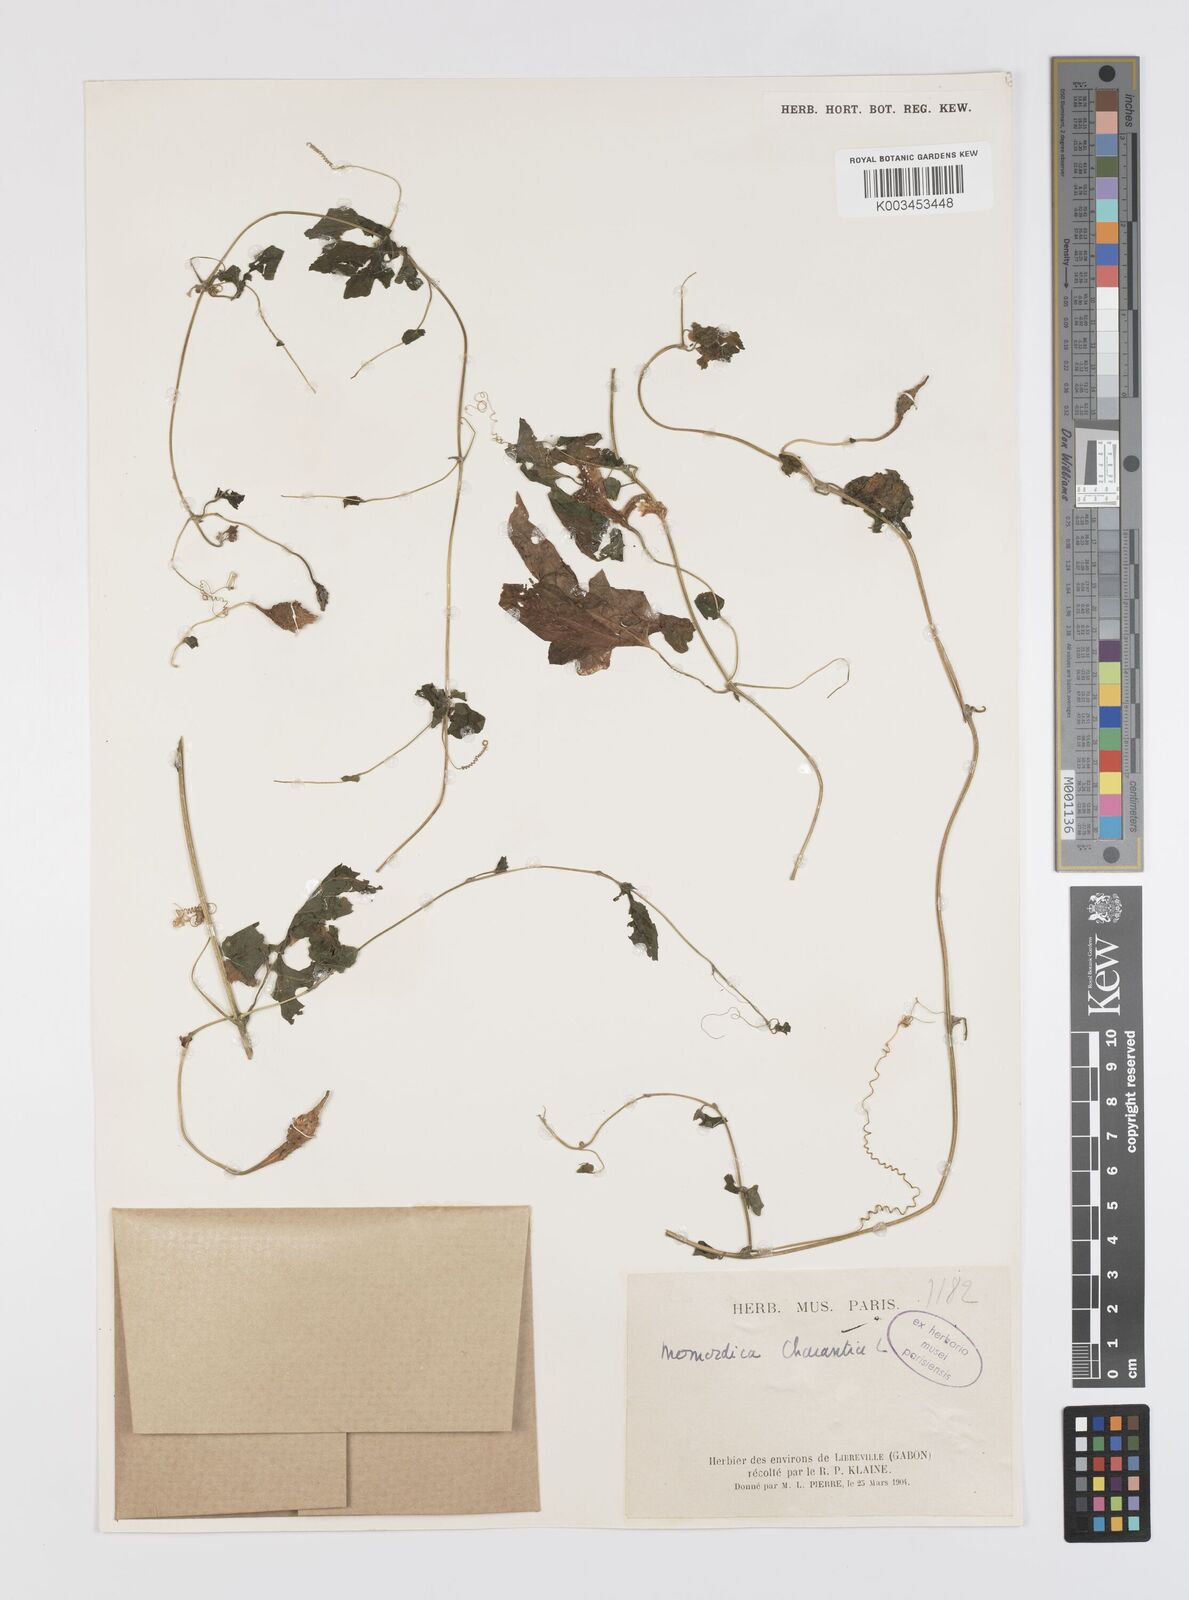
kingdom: Plantae
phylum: Tracheophyta
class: Magnoliopsida
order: Cucurbitales
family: Cucurbitaceae
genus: Momordica
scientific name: Momordica charantia
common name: Balsampear
